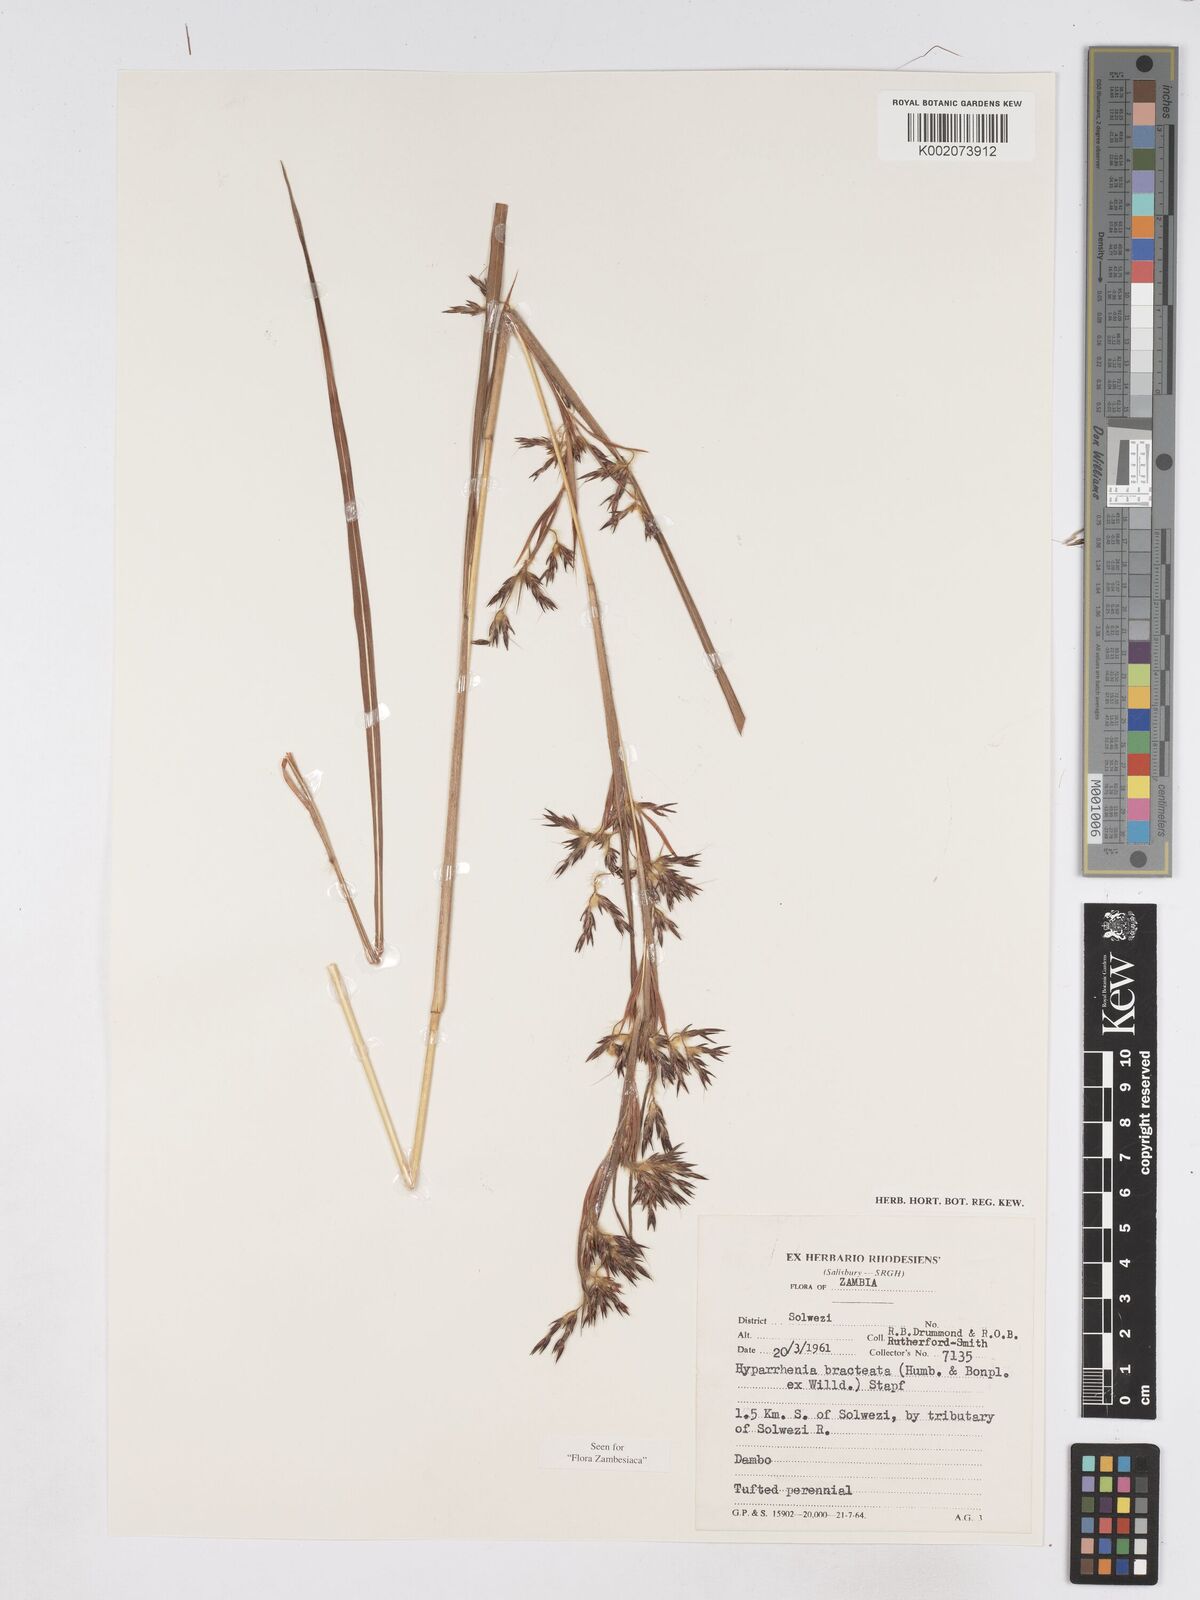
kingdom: Plantae
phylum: Tracheophyta
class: Liliopsida
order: Poales
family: Poaceae
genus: Hyparrhenia
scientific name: Hyparrhenia bracteata
